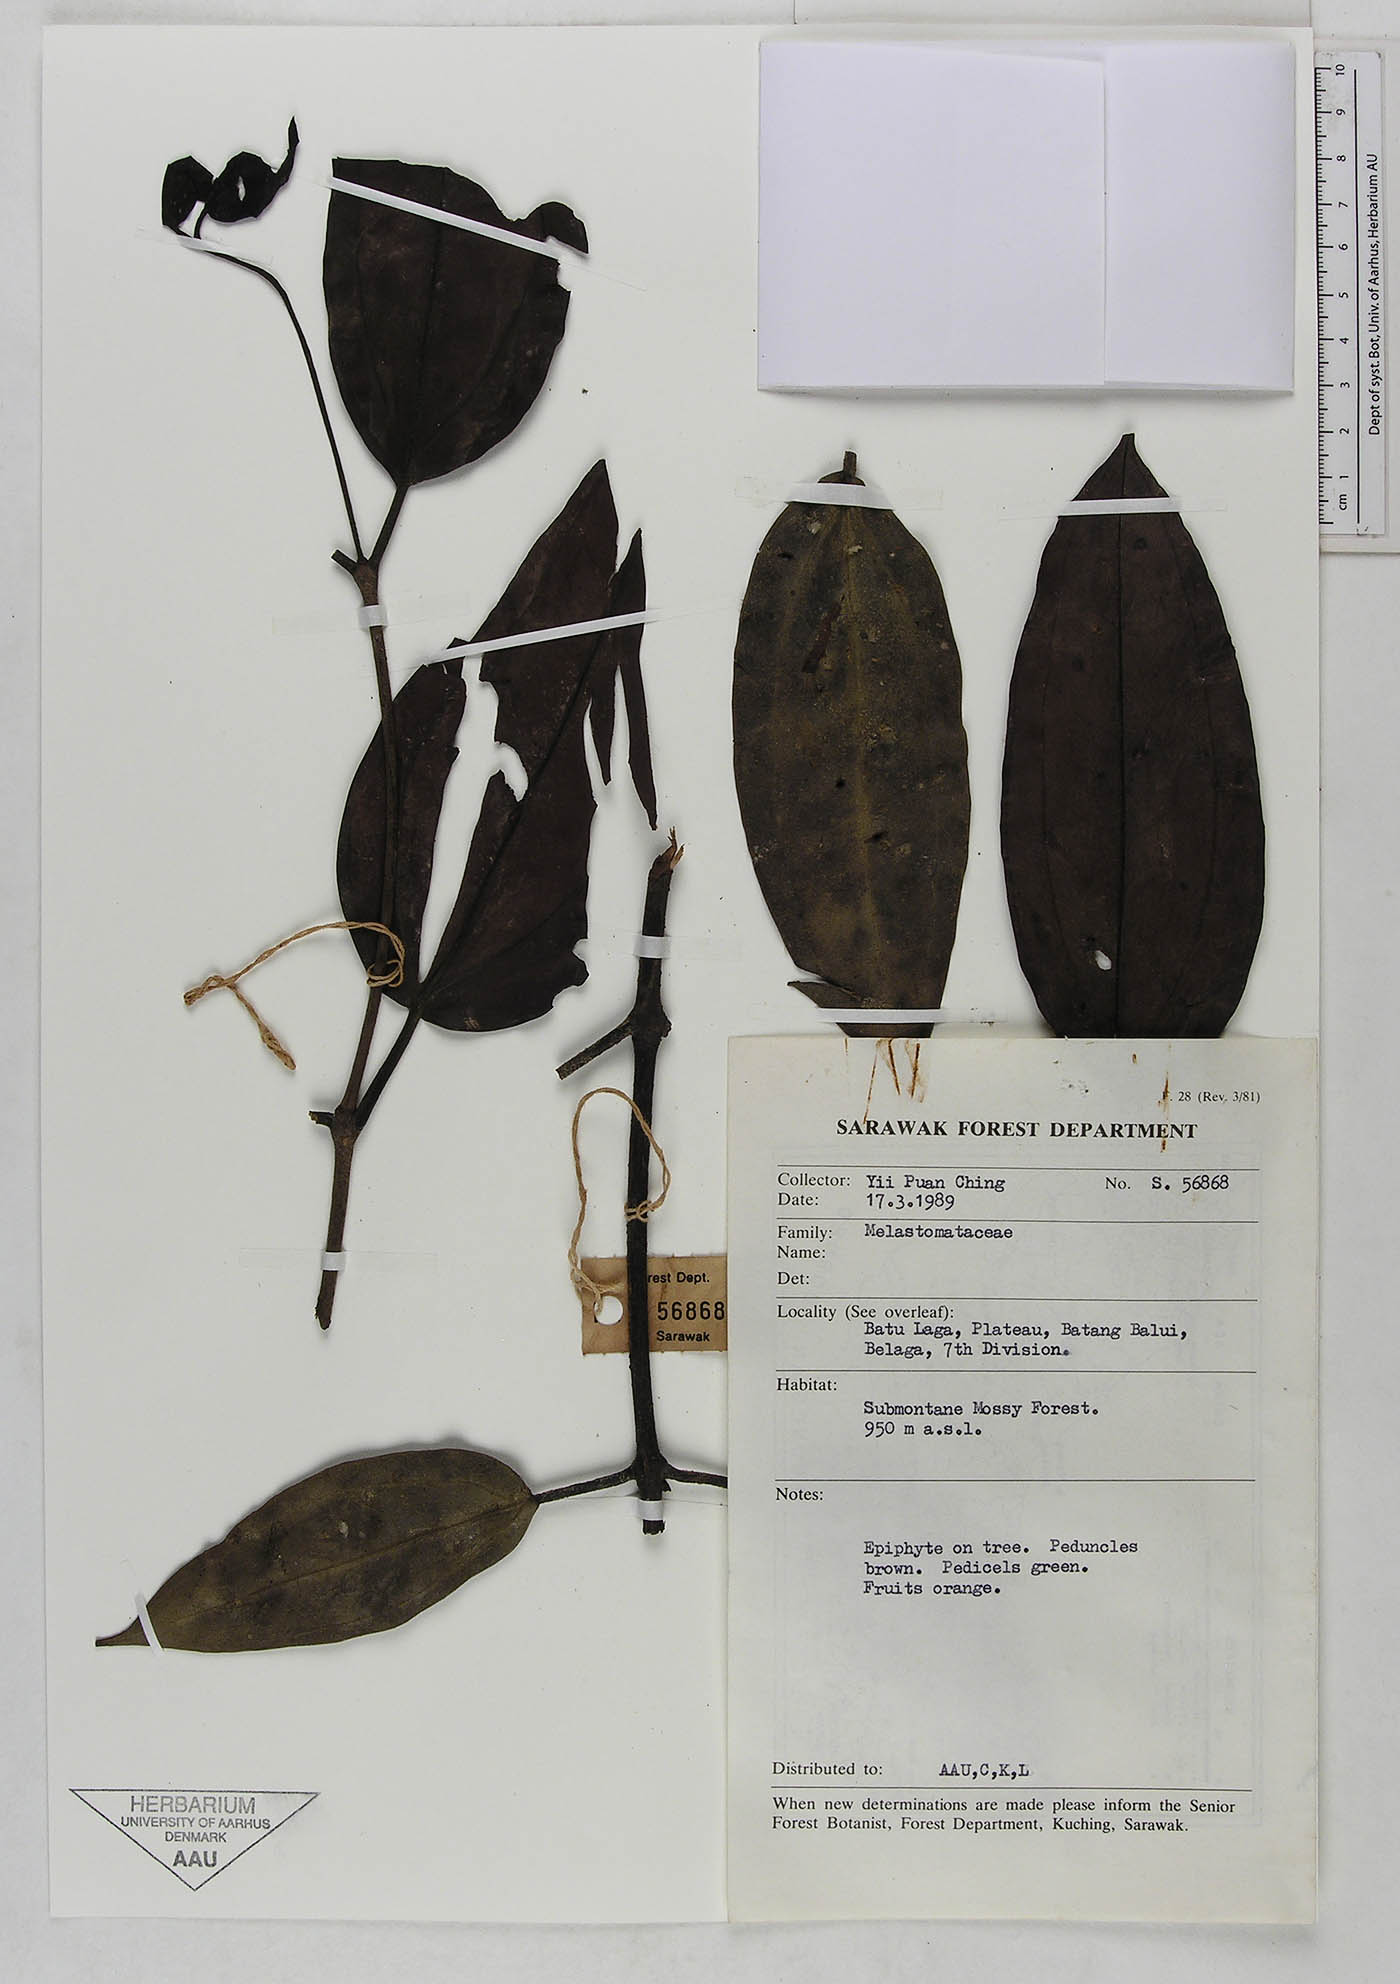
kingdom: Plantae
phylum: Tracheophyta
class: Magnoliopsida
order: Myrtales
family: Melastomataceae
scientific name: Melastomataceae
